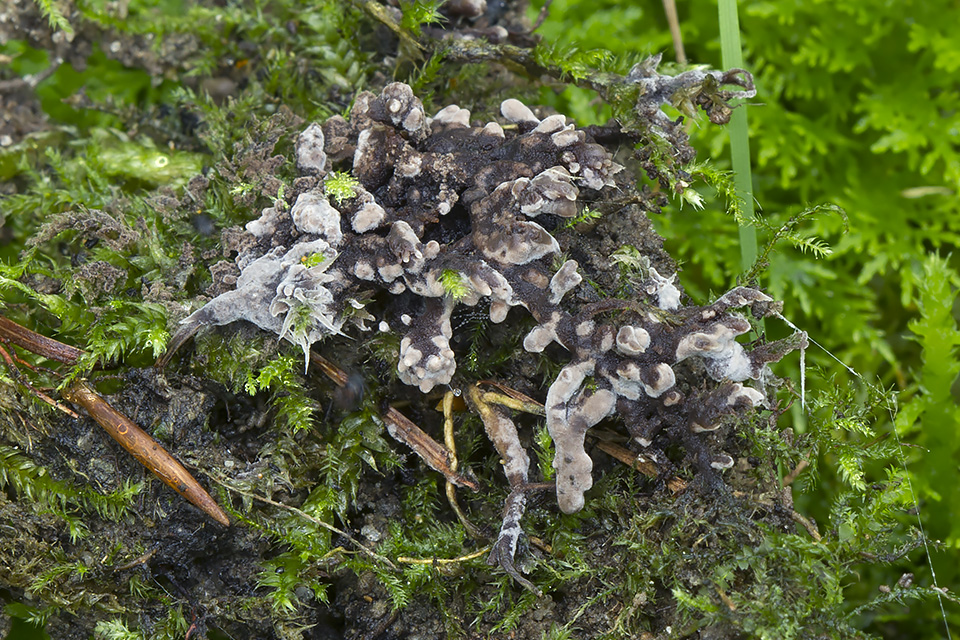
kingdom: Fungi
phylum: Basidiomycota
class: Agaricomycetes
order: Thelephorales
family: Thelephoraceae
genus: Tomentella
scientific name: Tomentella
